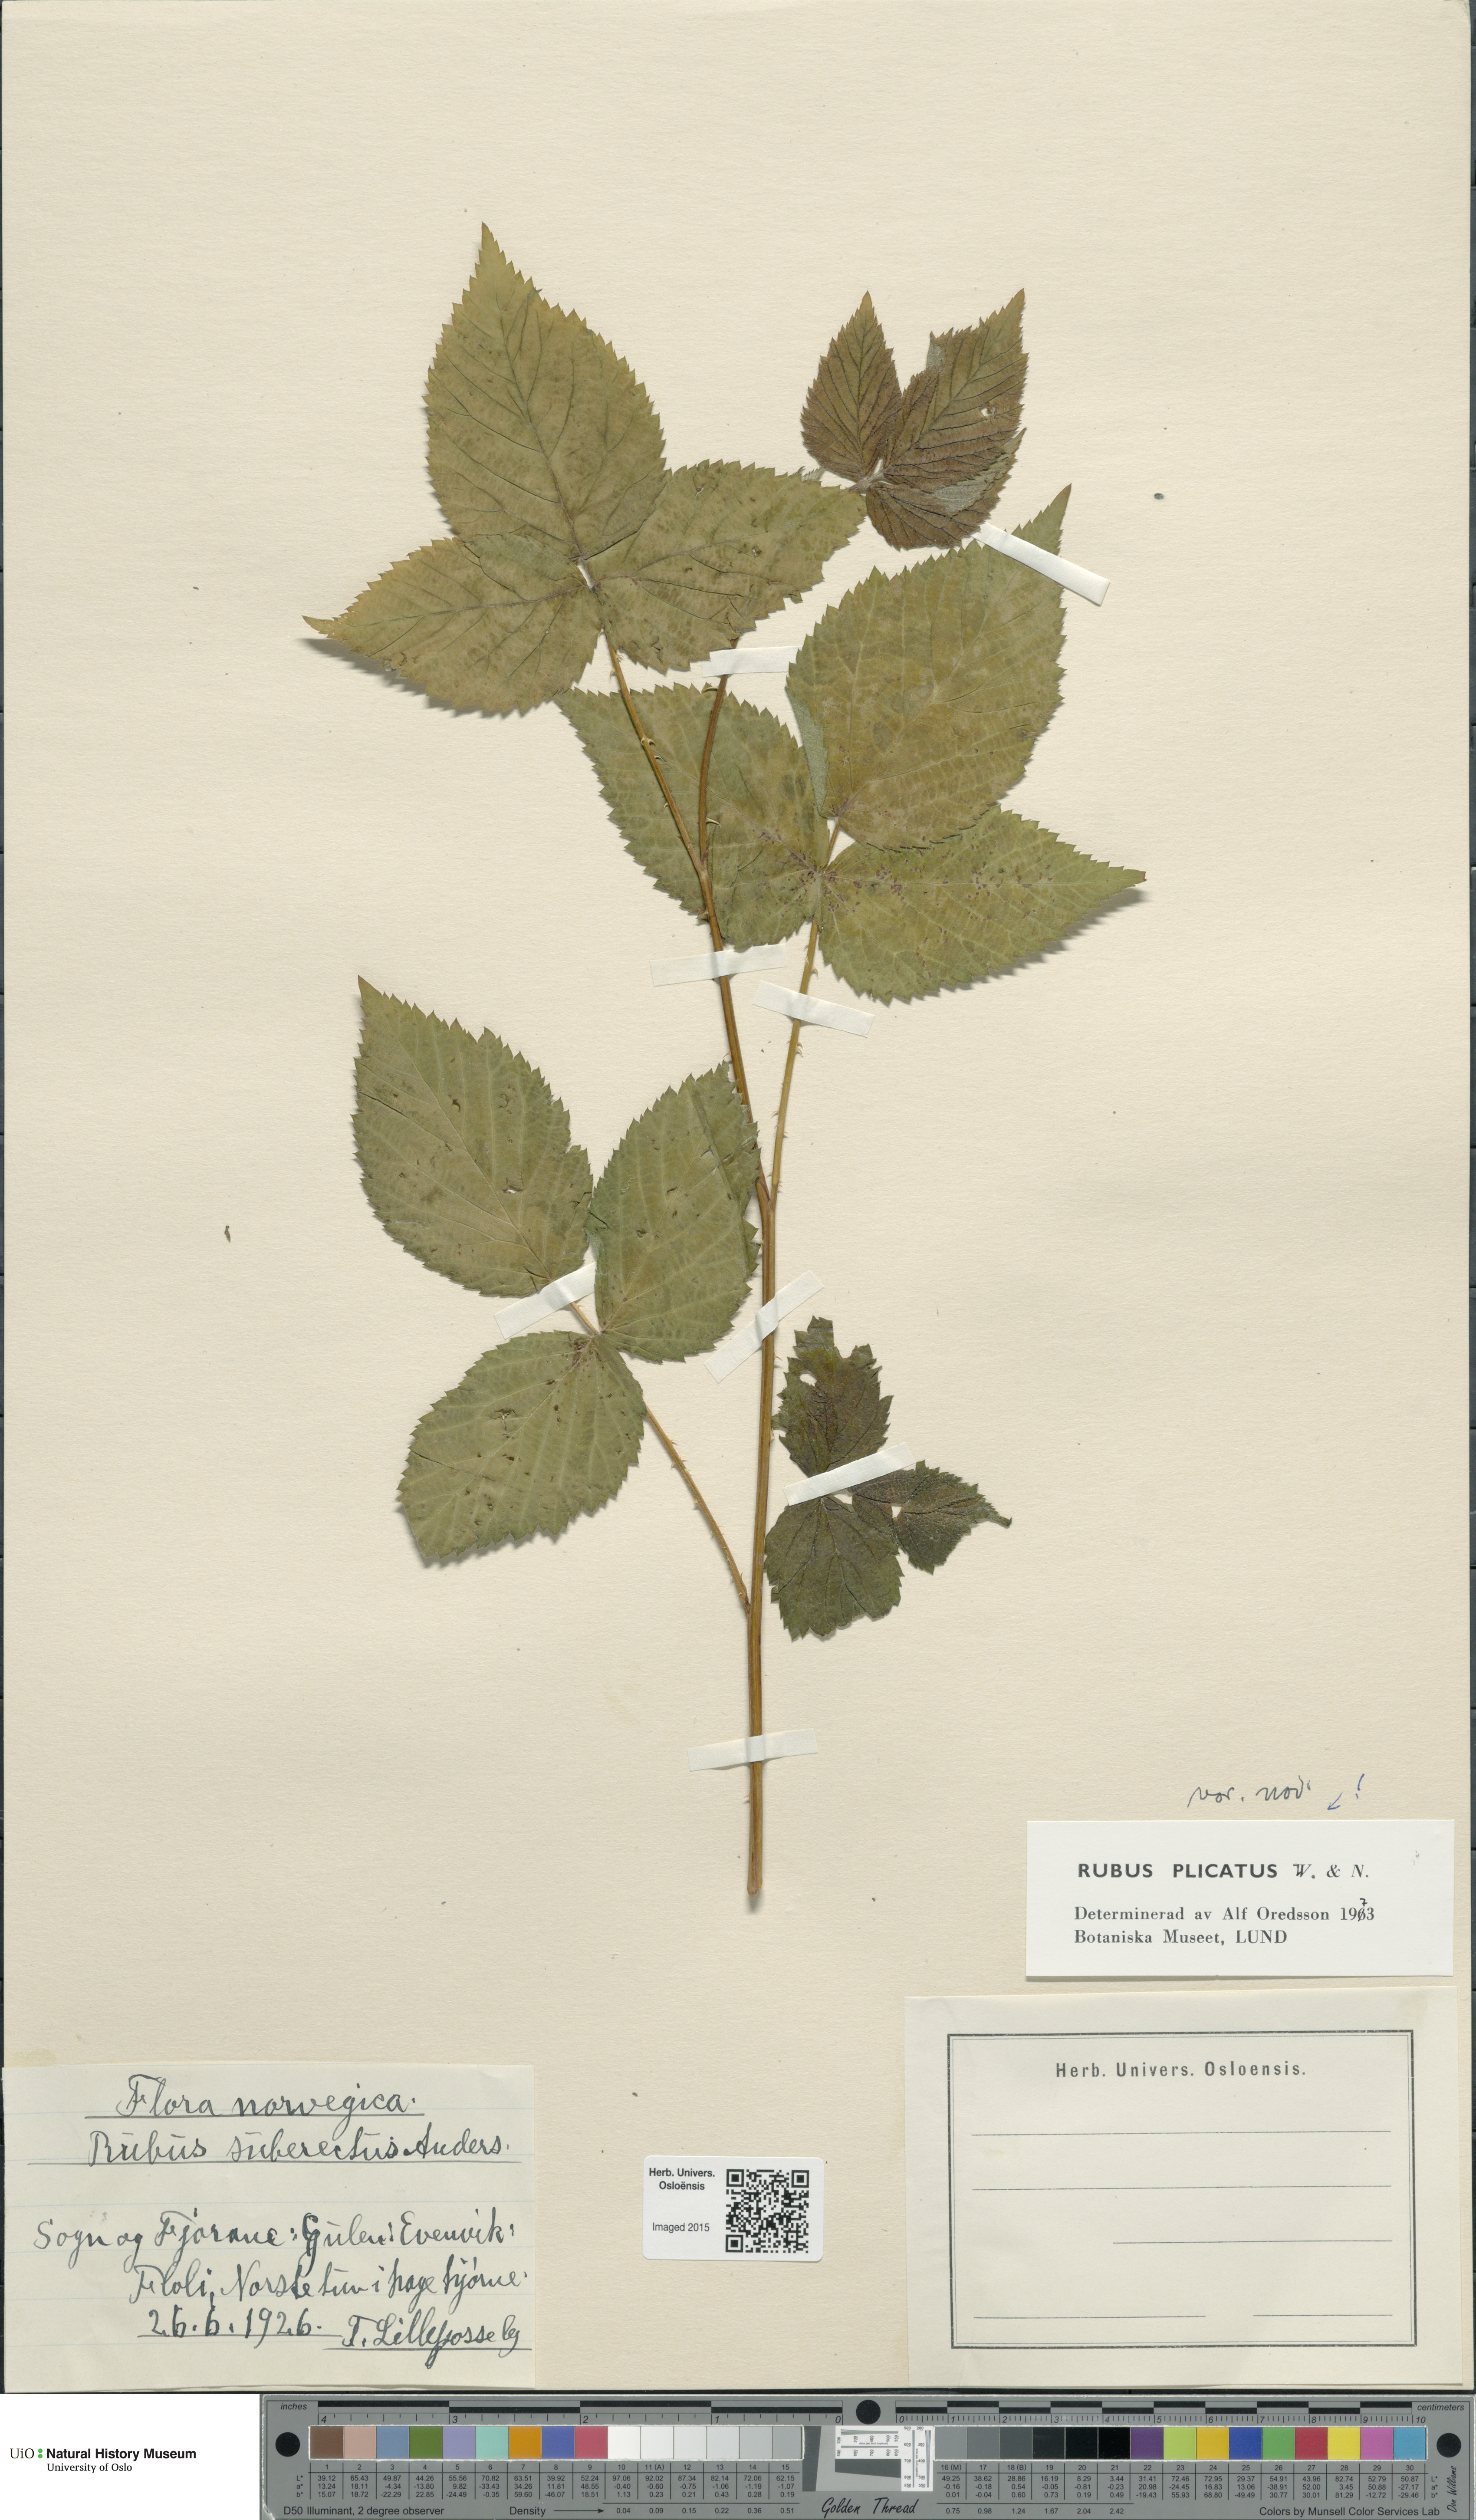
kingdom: Plantae
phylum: Tracheophyta
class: Magnoliopsida
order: Rosales
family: Rosaceae
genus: Rubus
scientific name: Rubus fruticosus
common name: Blackberry, bramble
